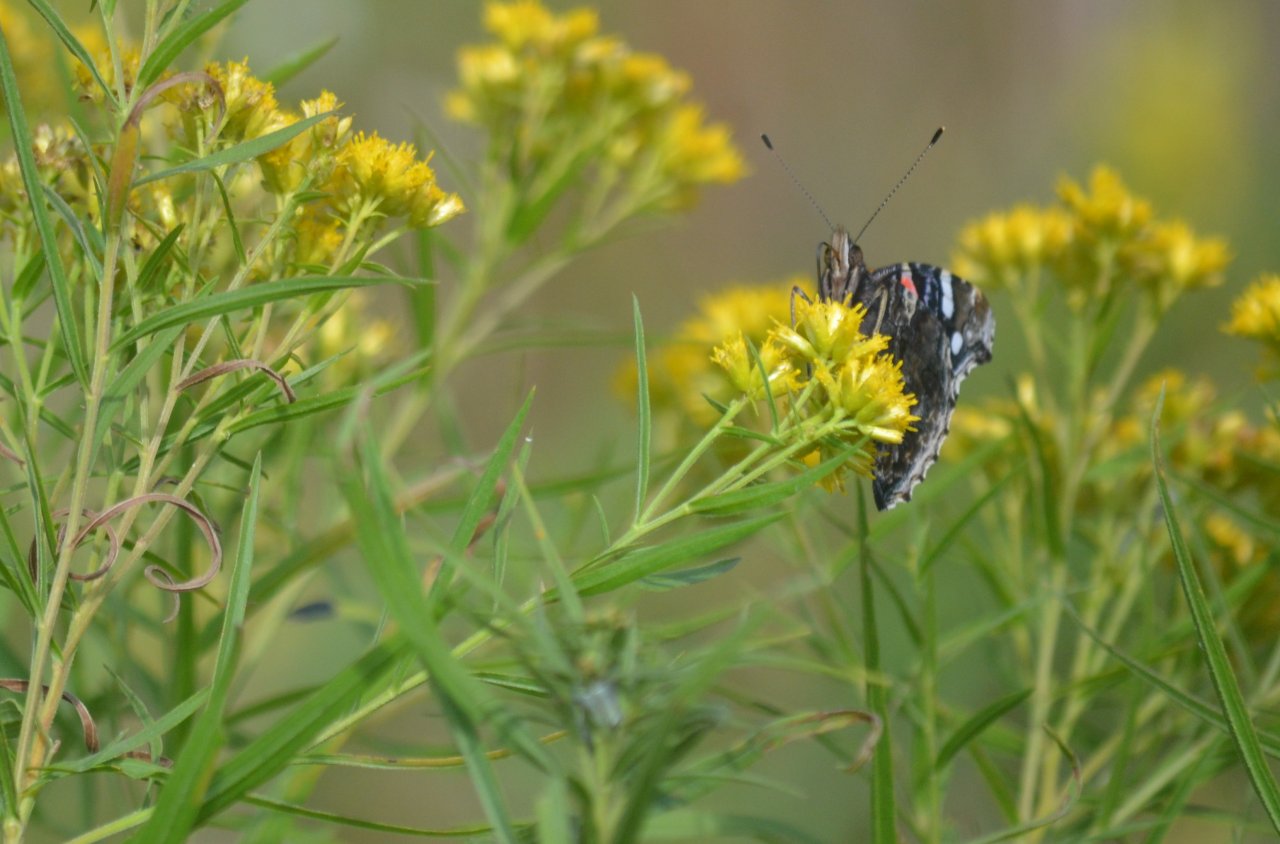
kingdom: Animalia
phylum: Arthropoda
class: Insecta
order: Lepidoptera
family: Nymphalidae
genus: Vanessa
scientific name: Vanessa atalanta
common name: Red Admiral
